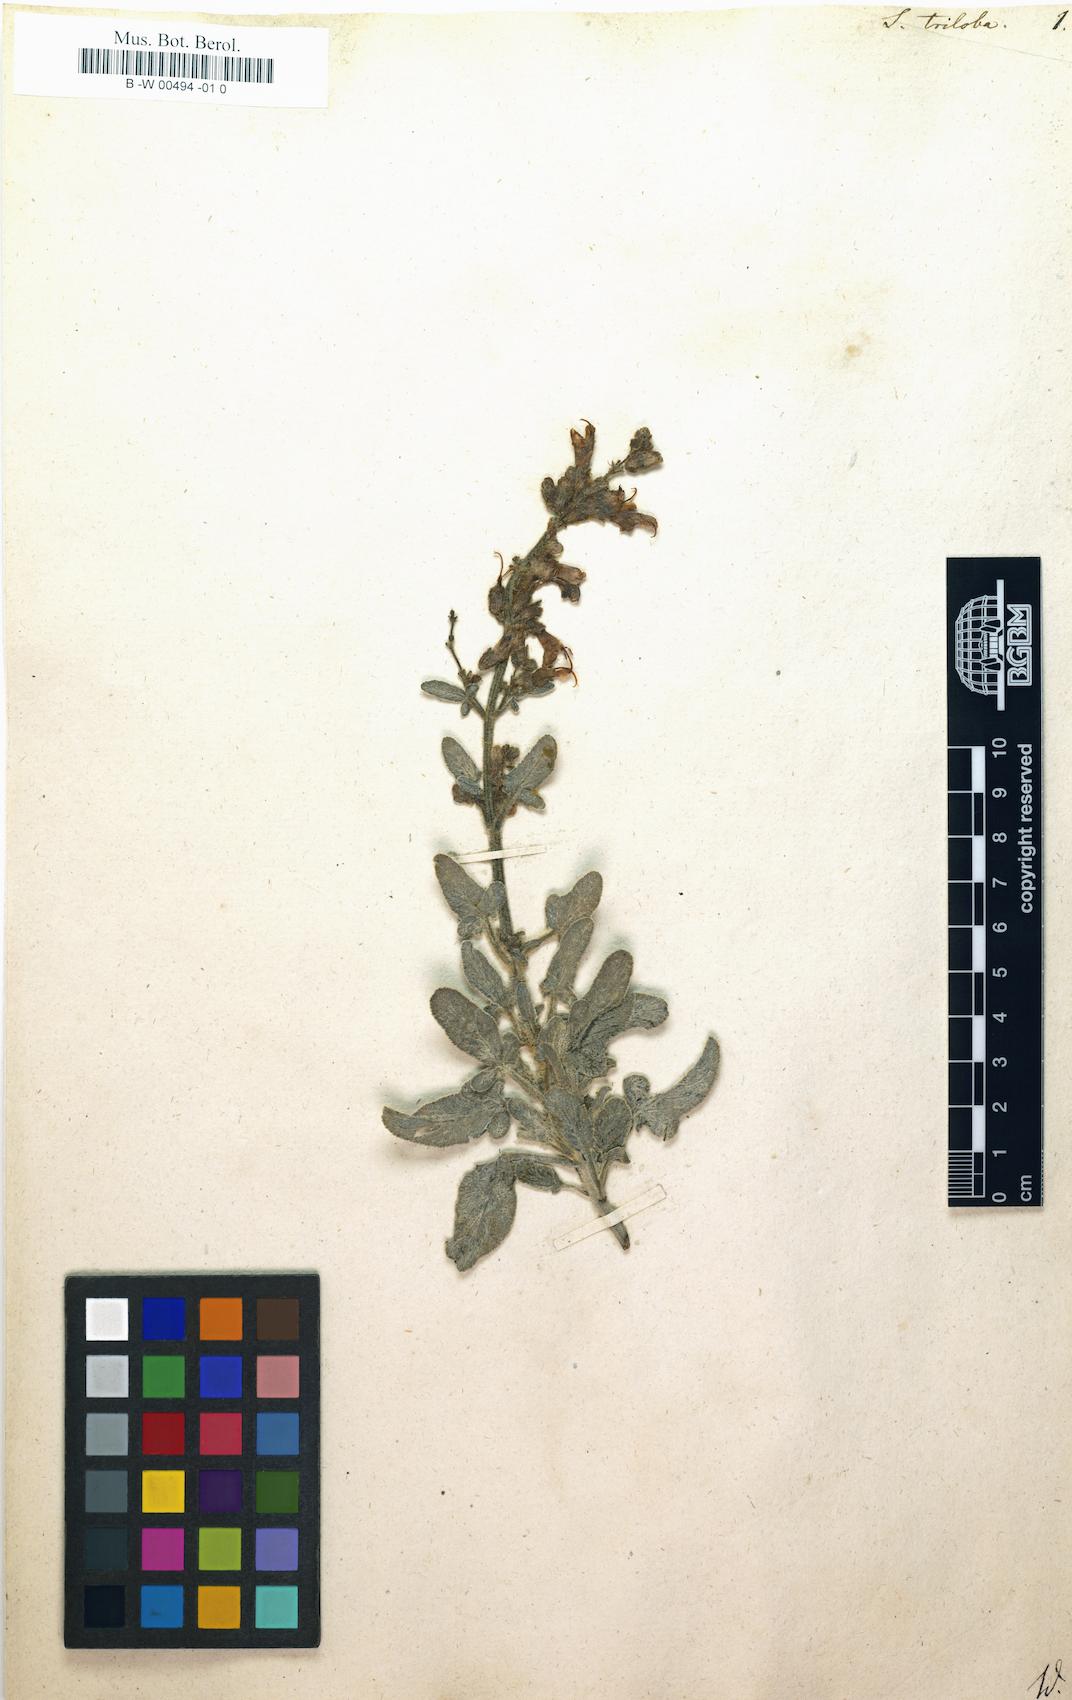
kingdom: Plantae
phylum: Tracheophyta
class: Magnoliopsida
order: Lamiales
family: Lamiaceae
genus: Salvia
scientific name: Salvia fruticosa
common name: Greek sage
